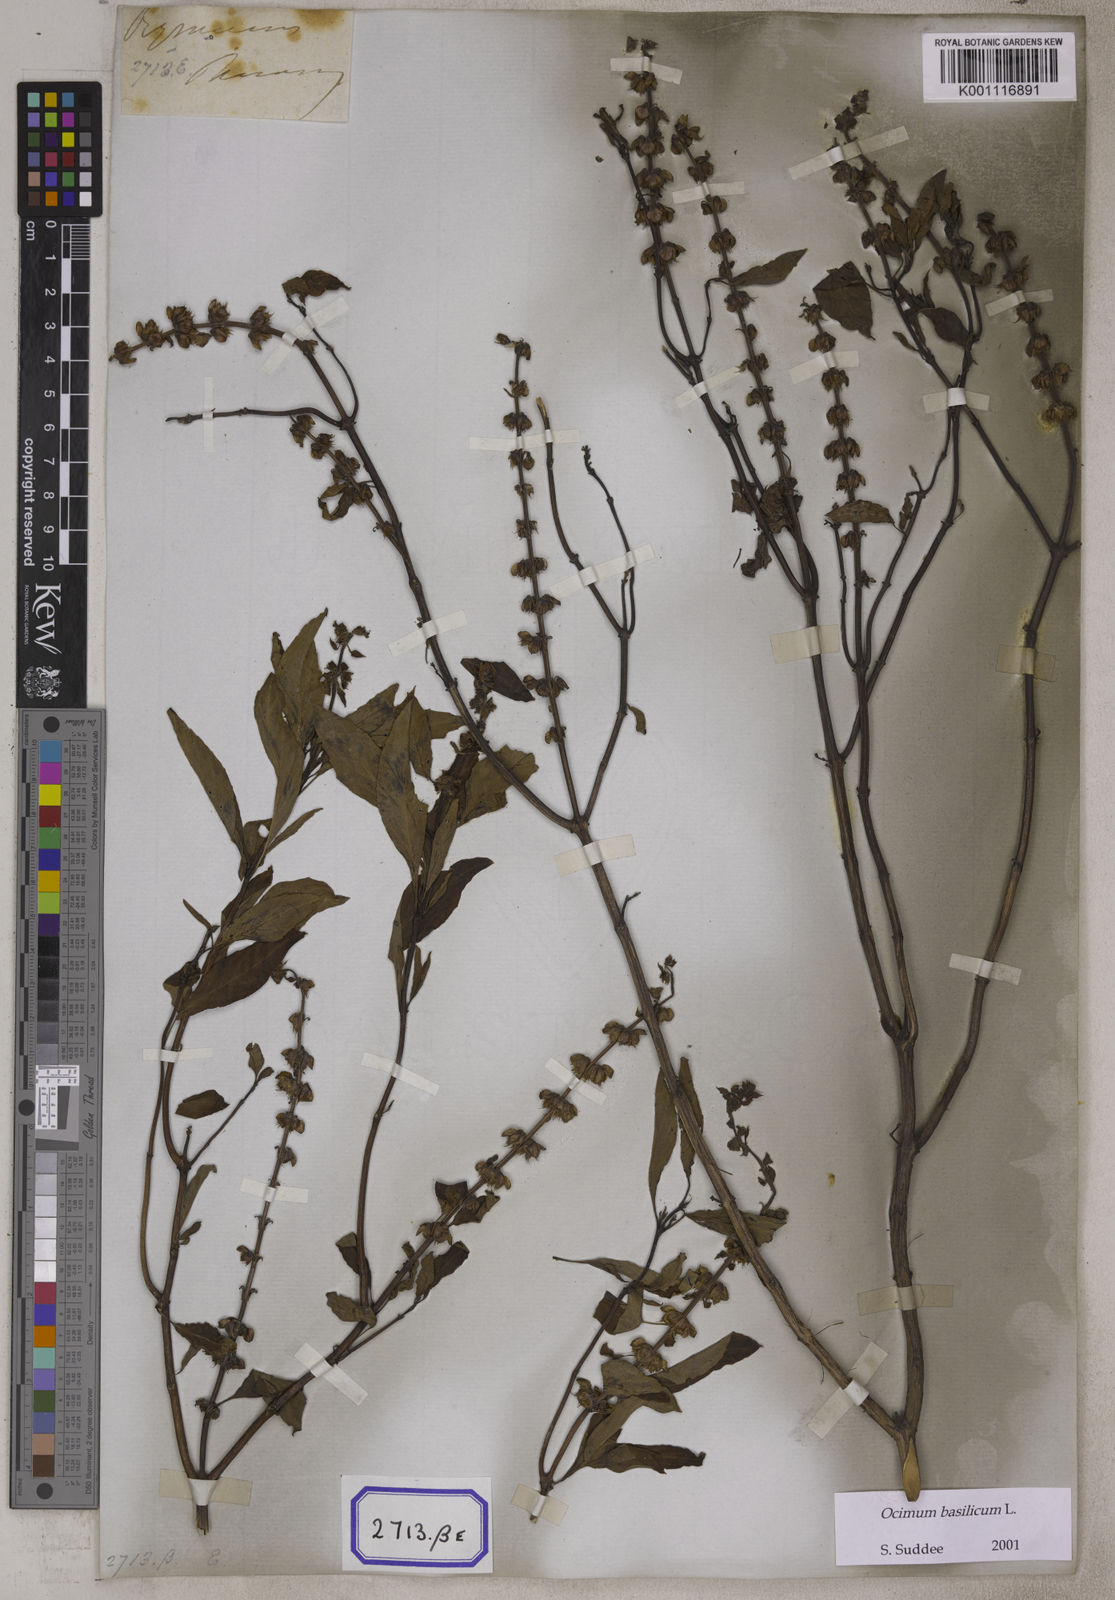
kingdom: Plantae
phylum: Tracheophyta
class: Magnoliopsida
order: Lamiales
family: Lamiaceae
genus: Ocimum
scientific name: Ocimum
